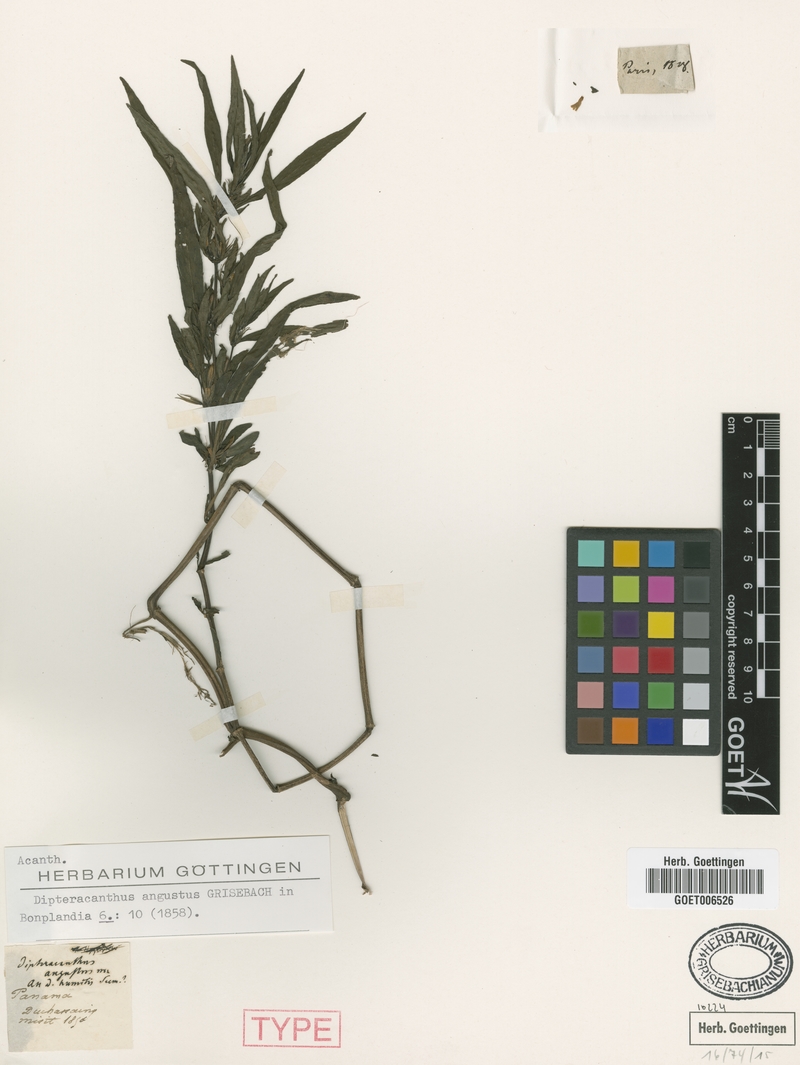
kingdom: Plantae
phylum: Tracheophyta
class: Magnoliopsida
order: Lamiales
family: Acanthaceae
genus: Ruellia
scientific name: Ruellia Dipteracanthus angustus
